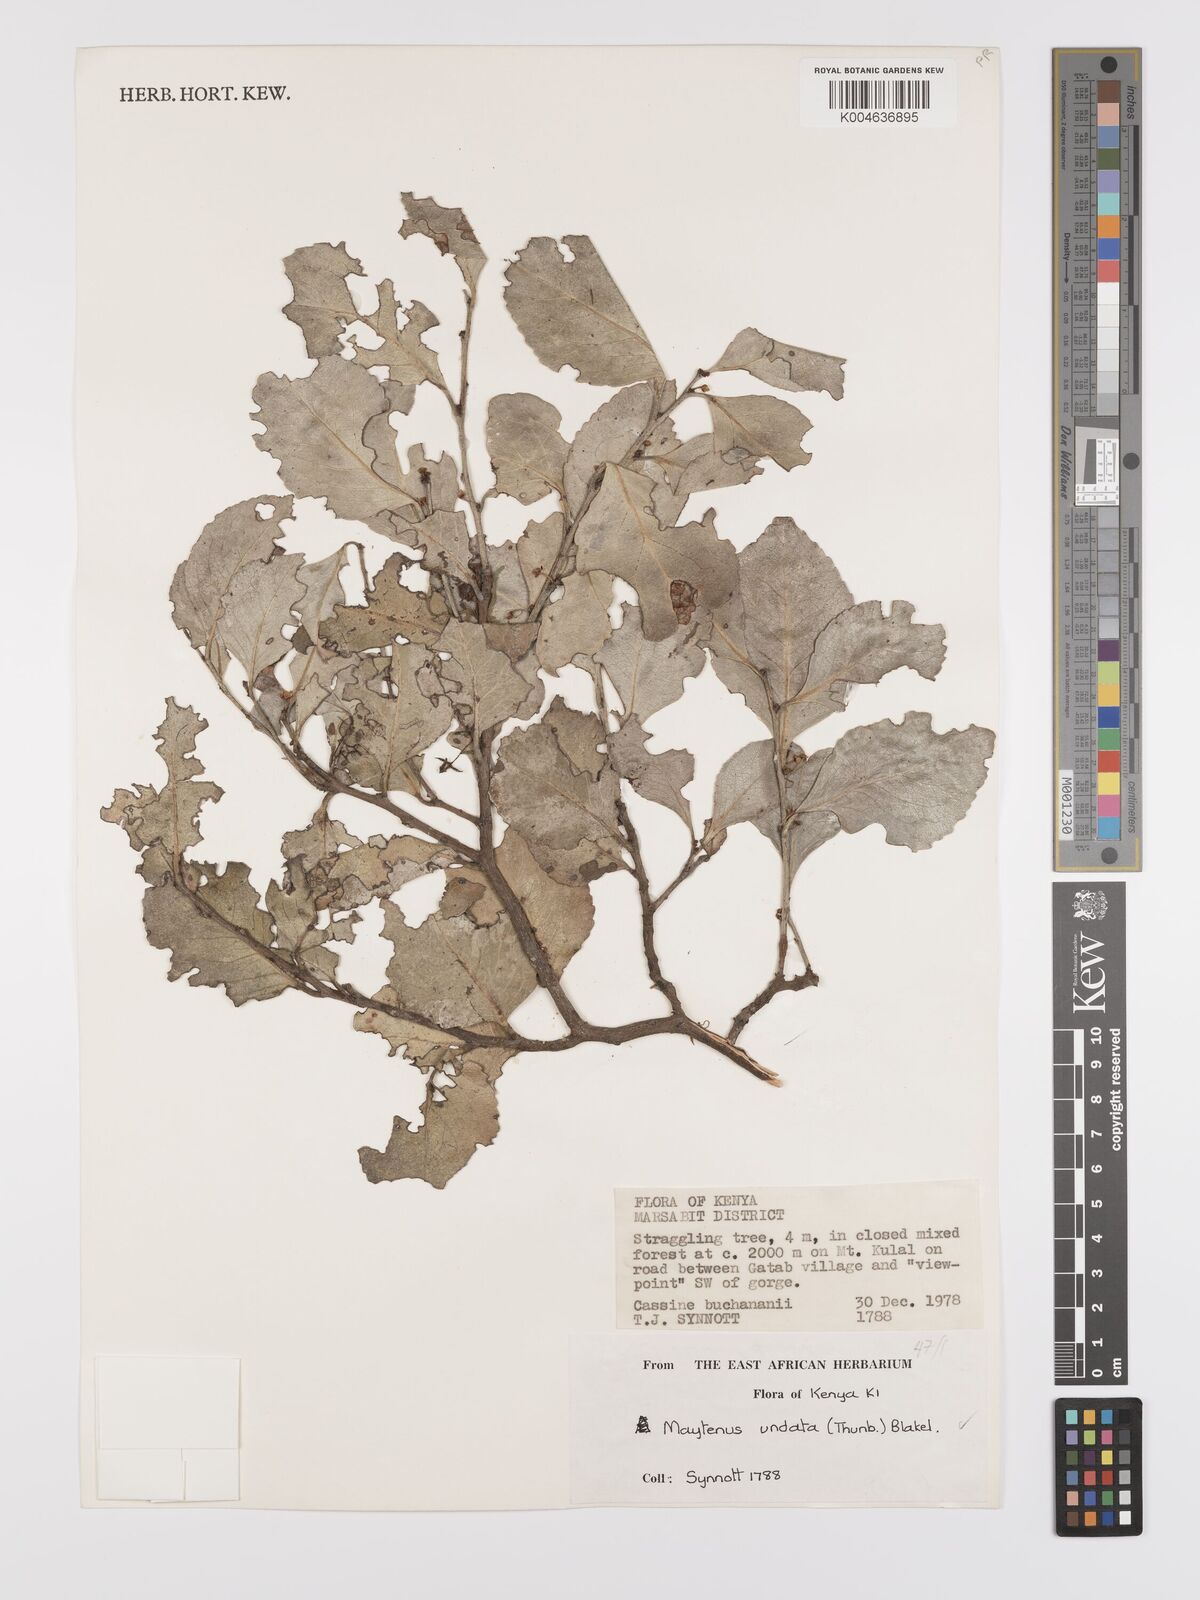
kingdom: Plantae
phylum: Tracheophyta
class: Magnoliopsida
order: Celastrales
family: Celastraceae
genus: Gymnosporia
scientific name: Gymnosporia undata
